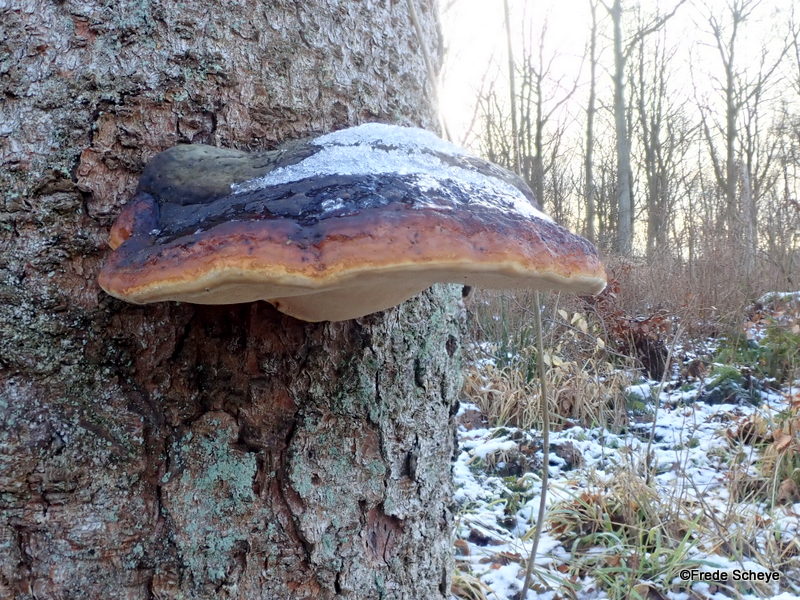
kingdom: Fungi
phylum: Basidiomycota
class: Agaricomycetes
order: Polyporales
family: Fomitopsidaceae
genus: Fomitopsis
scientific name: Fomitopsis pinicola
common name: randbæltet hovporesvamp
